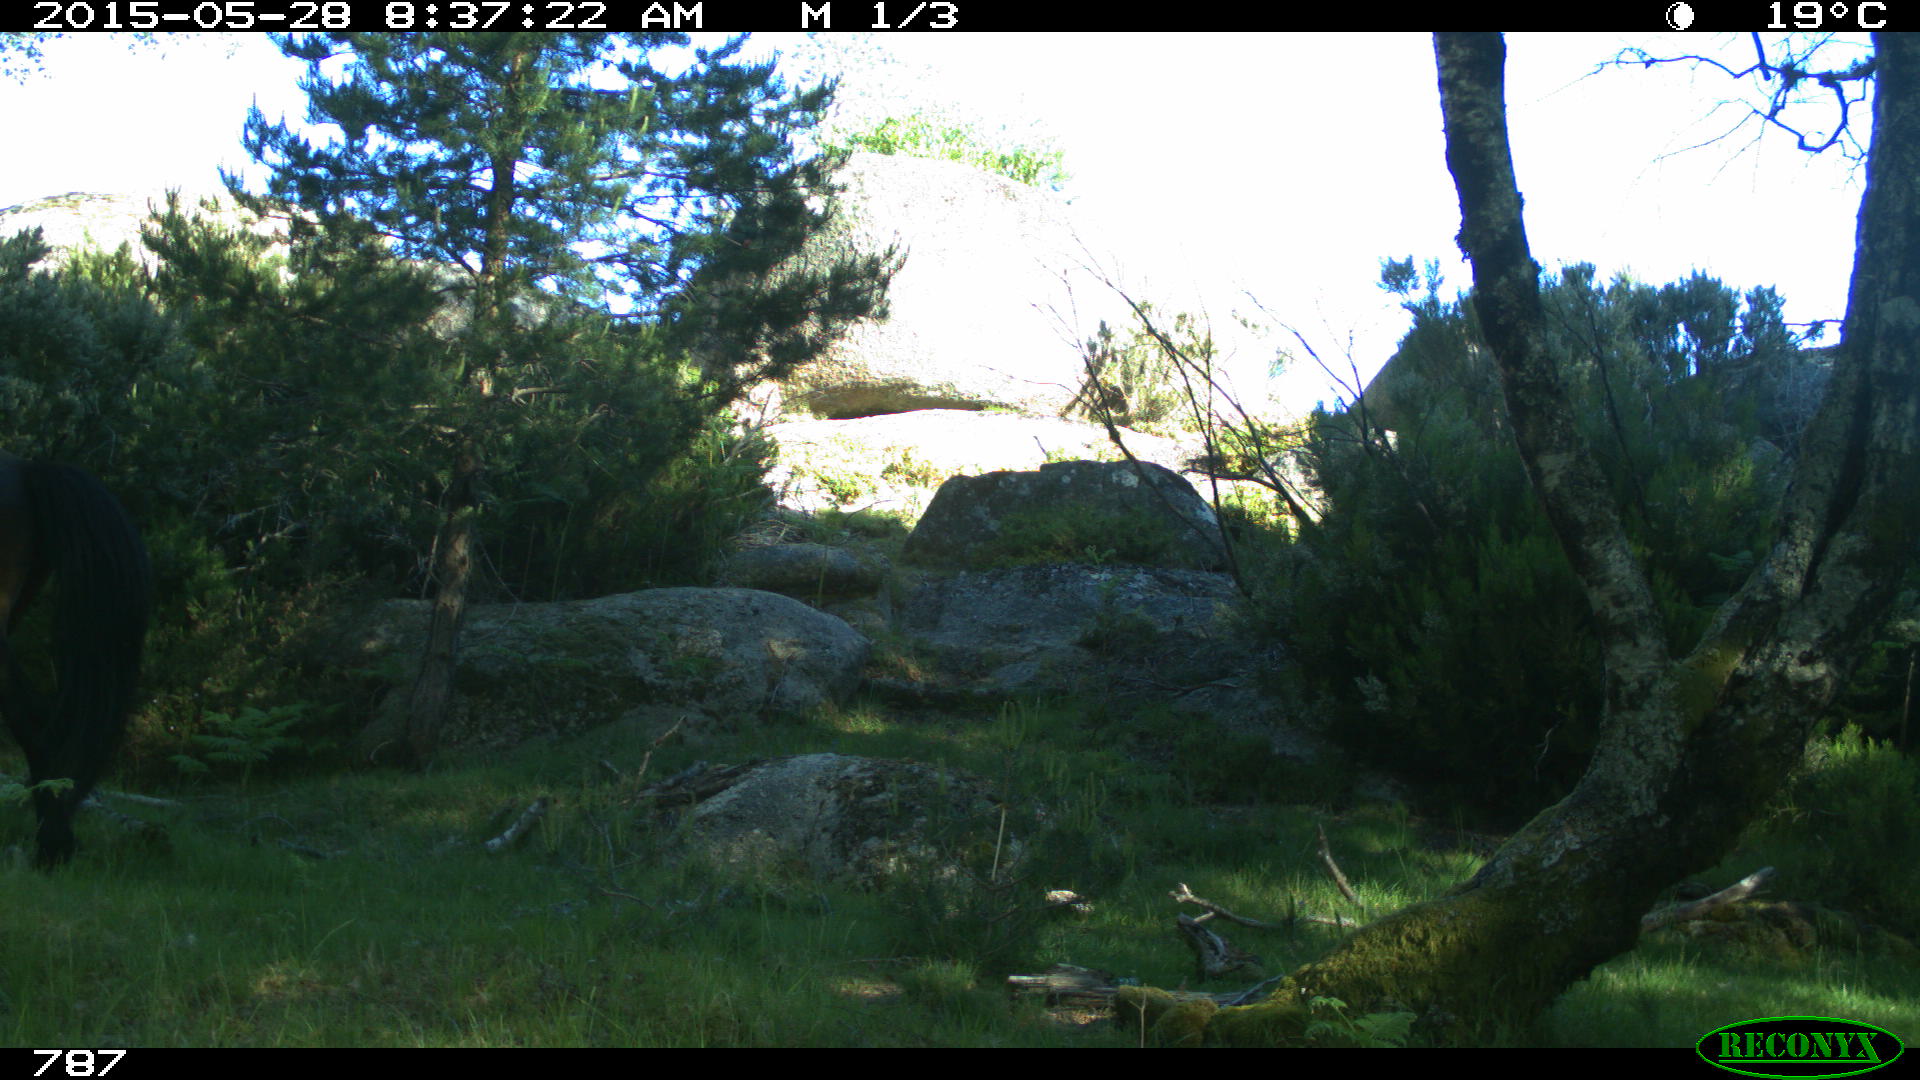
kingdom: Animalia
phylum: Chordata
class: Mammalia
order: Perissodactyla
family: Equidae
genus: Equus
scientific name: Equus caballus
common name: Horse
